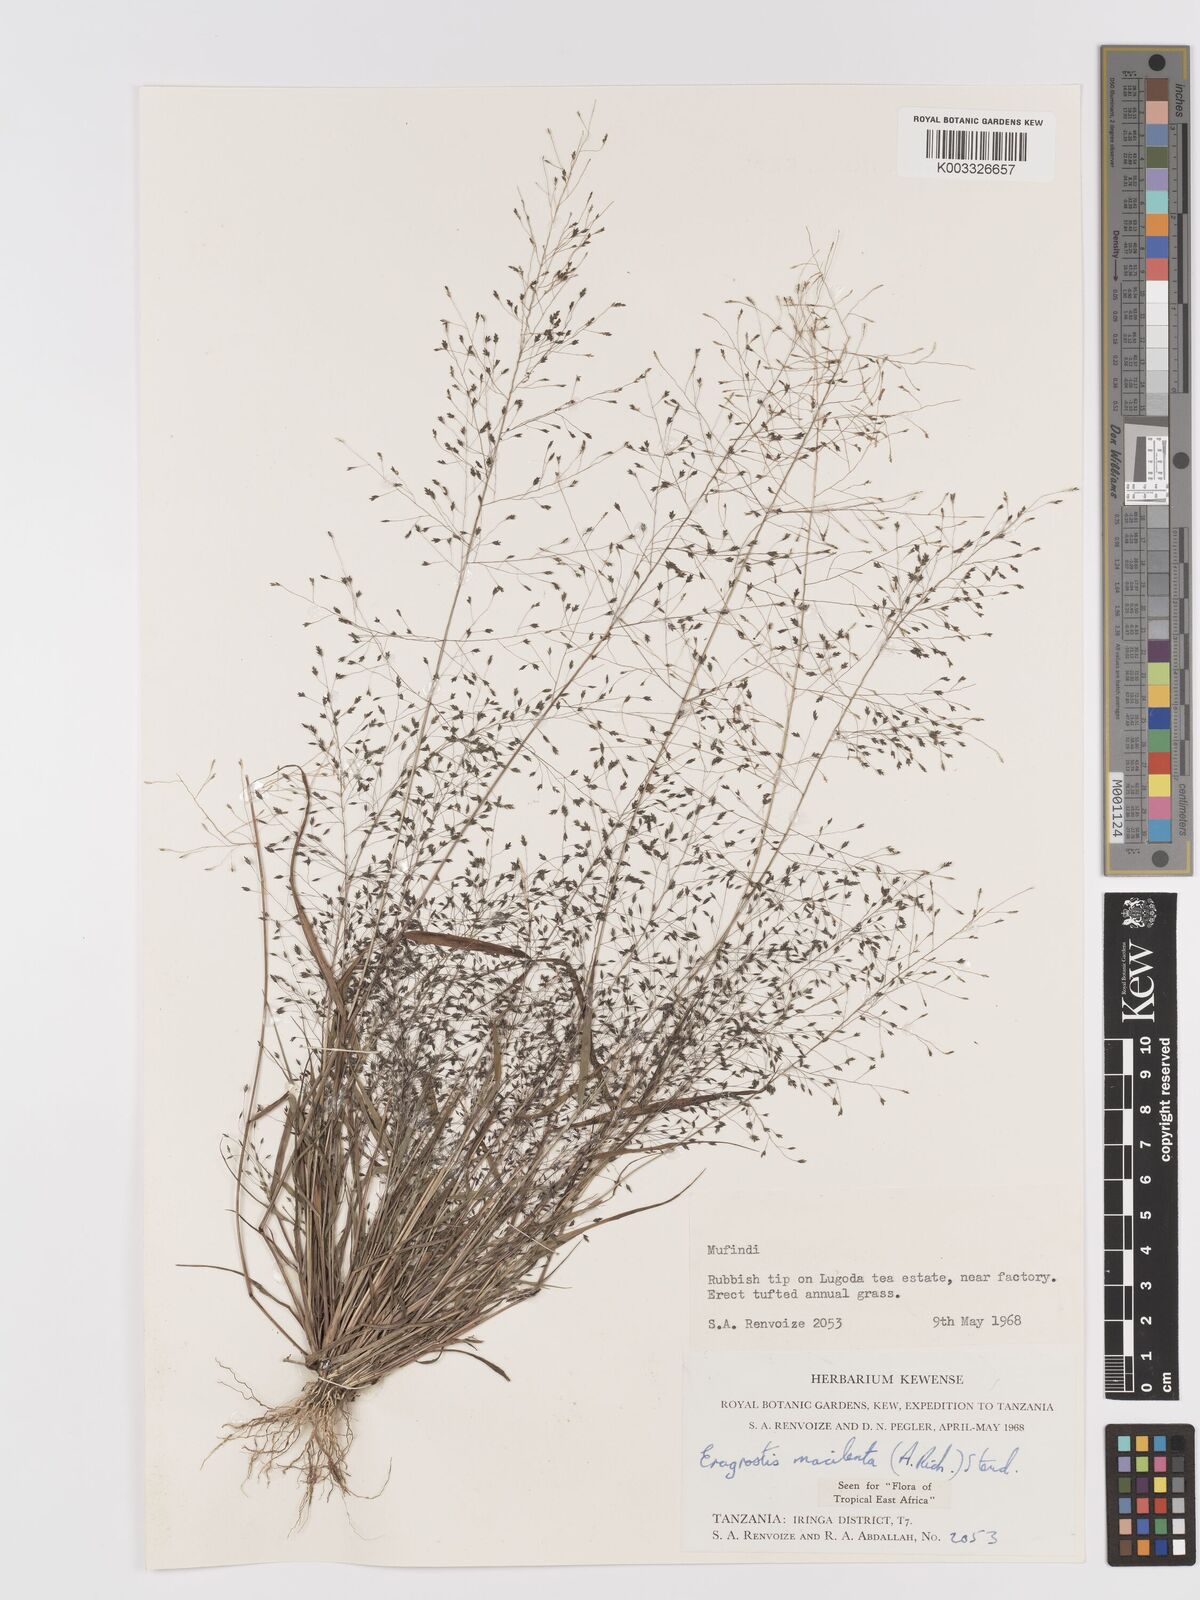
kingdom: Plantae
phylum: Tracheophyta
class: Liliopsida
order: Poales
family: Poaceae
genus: Eragrostis
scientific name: Eragrostis macilenta
